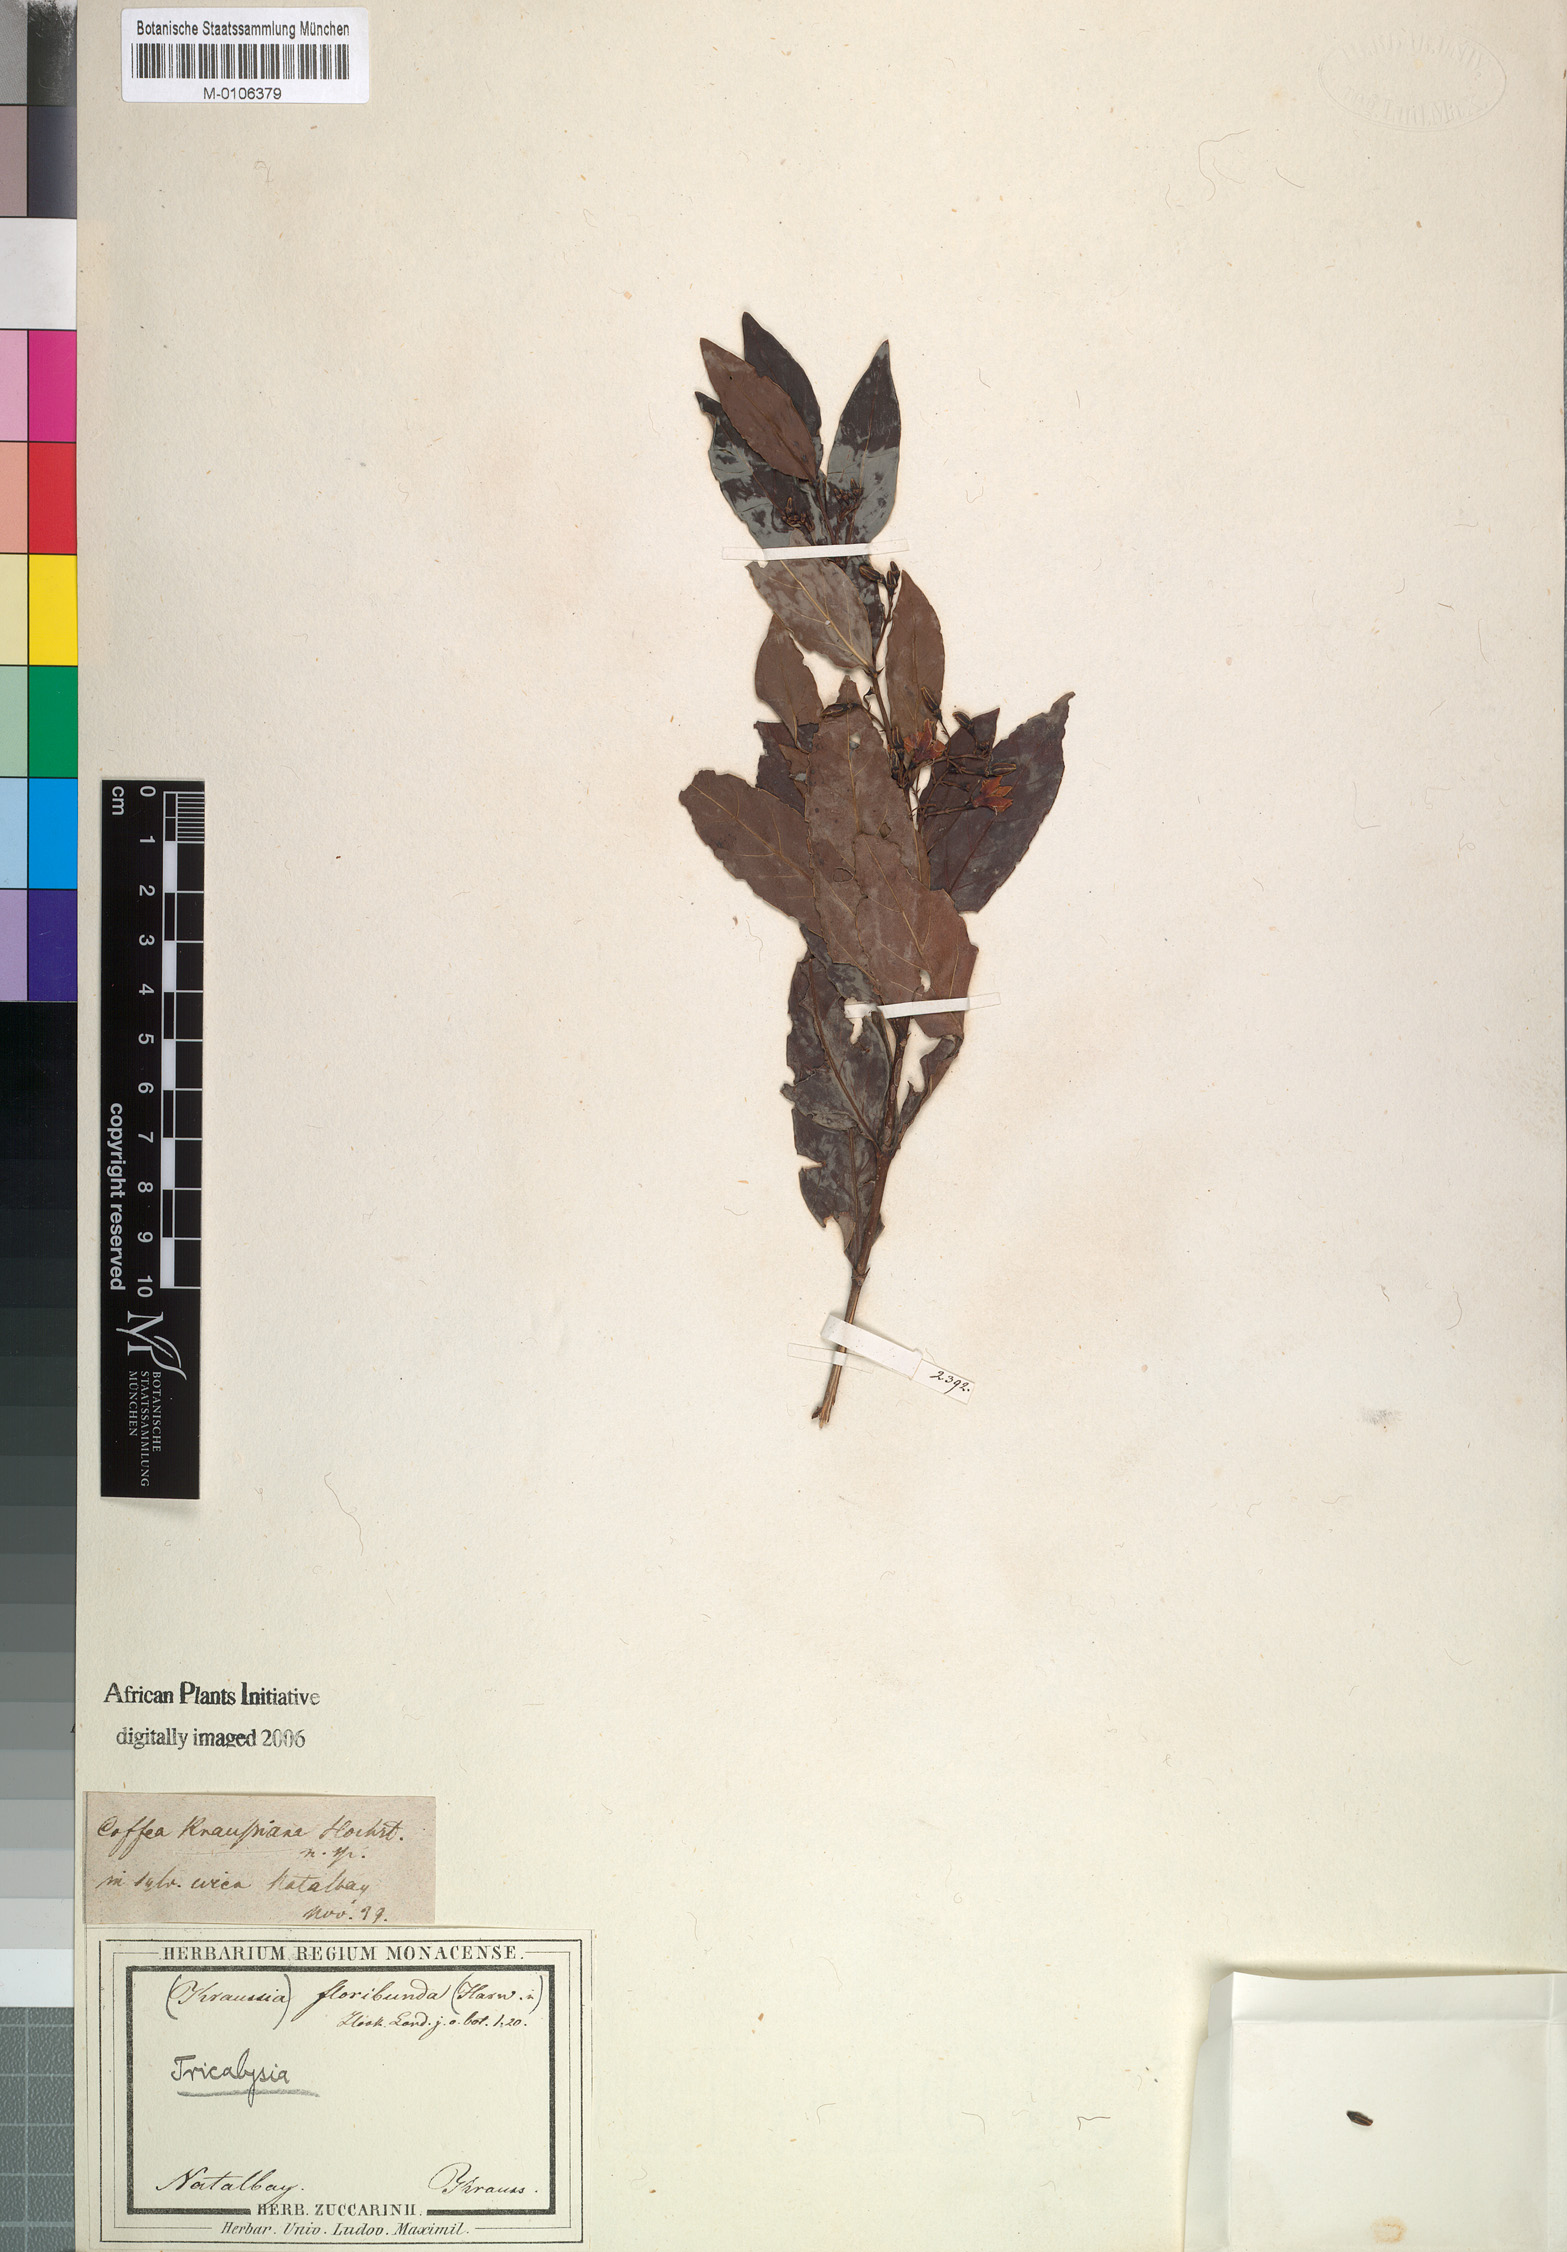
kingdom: Plantae
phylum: Tracheophyta
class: Magnoliopsida
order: Gentianales
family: Rubiaceae
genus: Kraussia
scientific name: Kraussia floribunda
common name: Rhino-coffee
